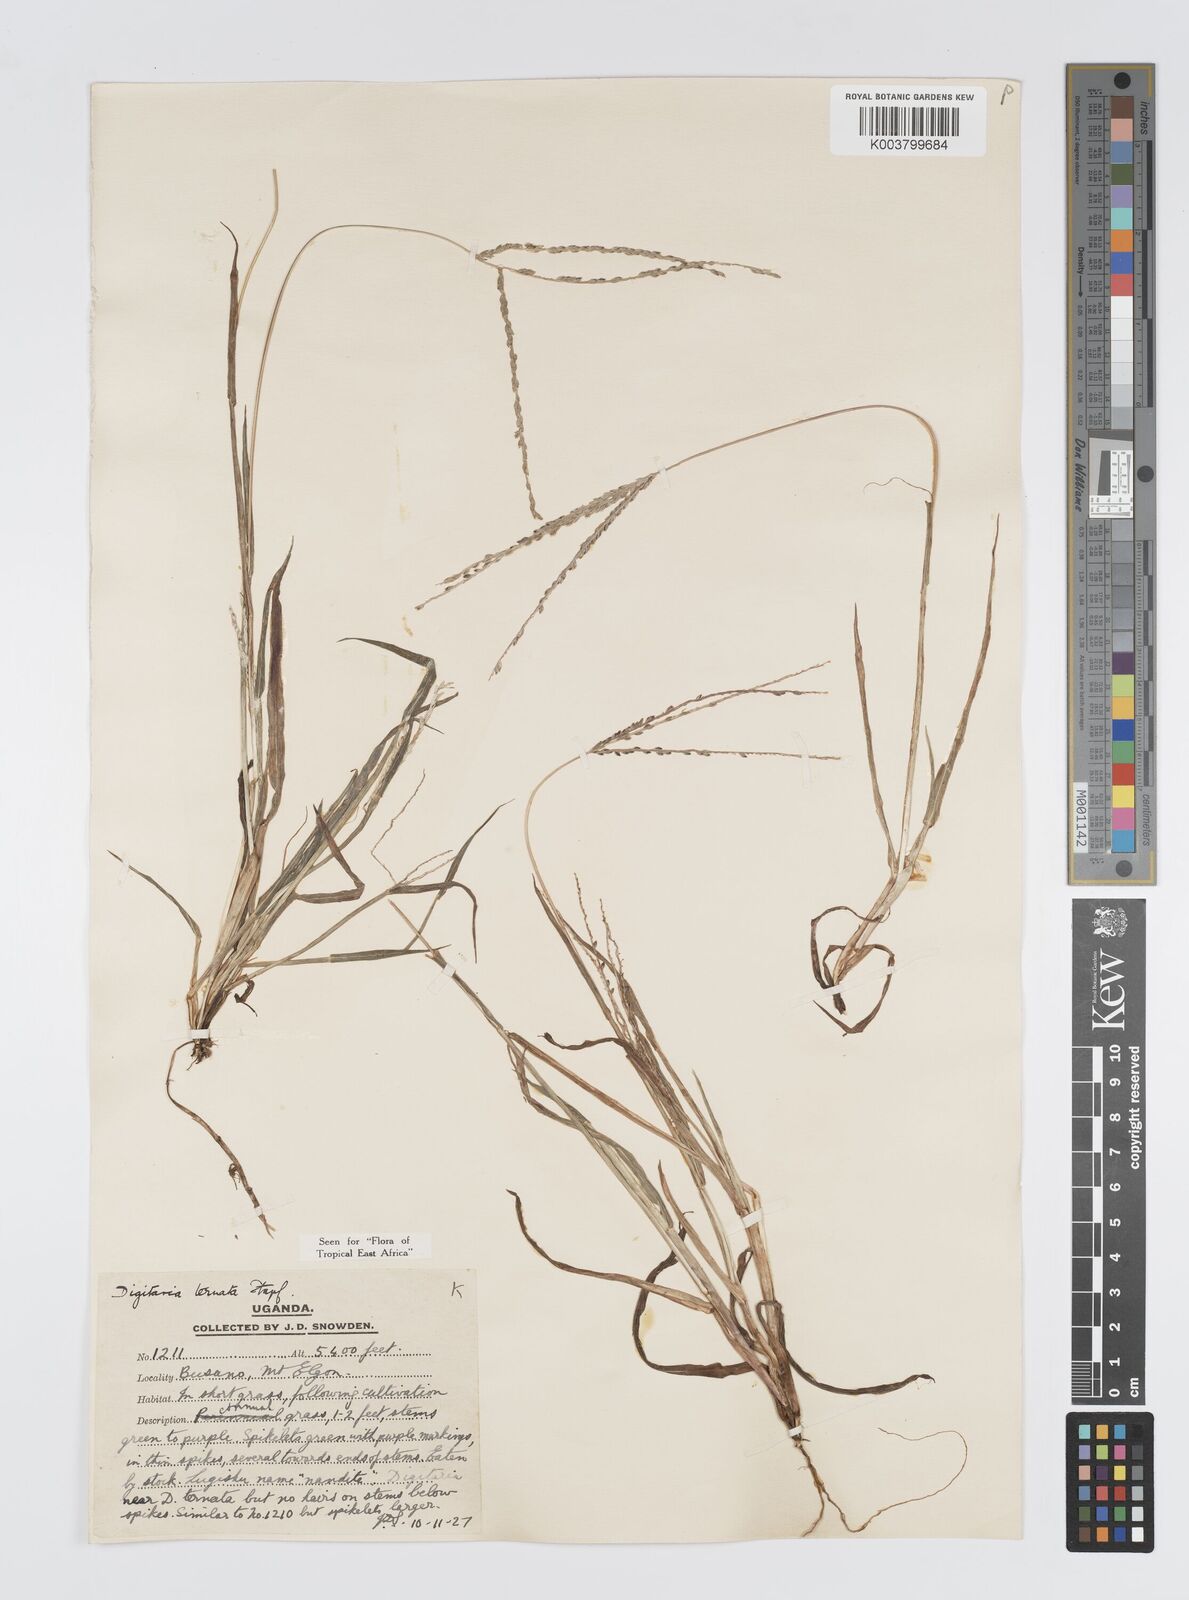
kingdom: Plantae
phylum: Tracheophyta
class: Liliopsida
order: Poales
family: Poaceae
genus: Digitaria
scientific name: Digitaria ternata
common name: Blackseed crabgrass
